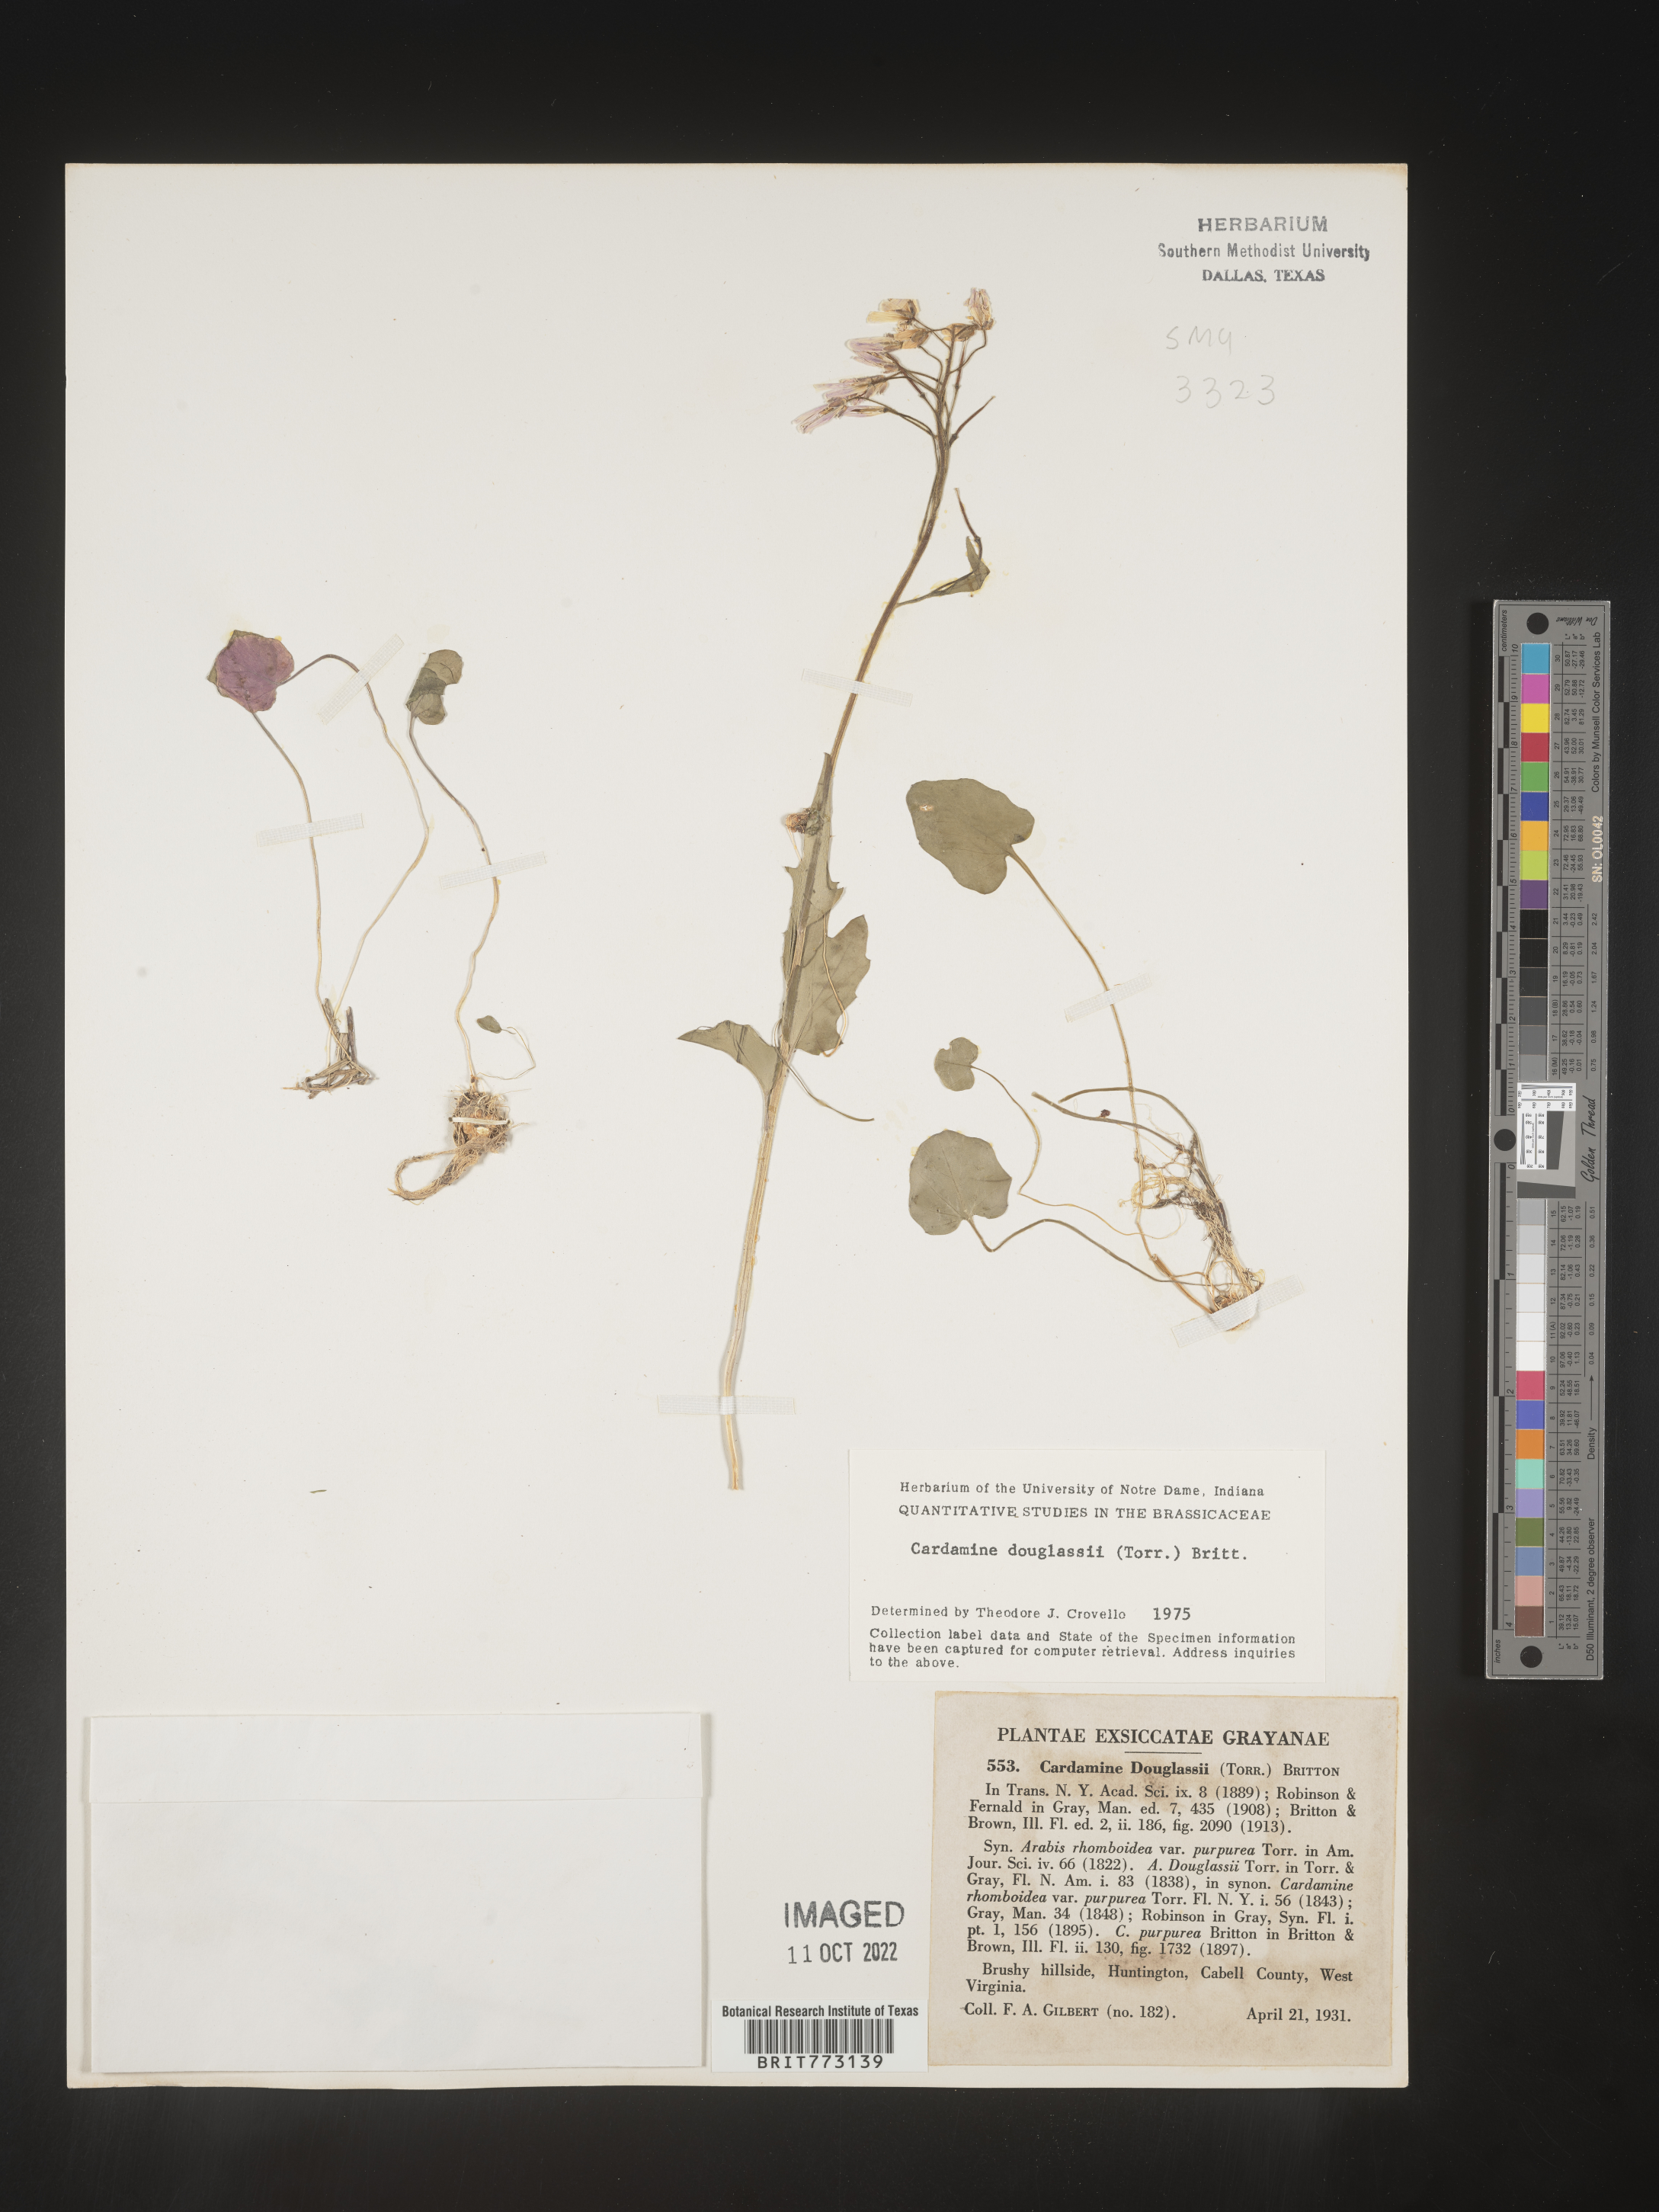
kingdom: Plantae
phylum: Tracheophyta
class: Magnoliopsida
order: Brassicales
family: Brassicaceae
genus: Cardamine
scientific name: Cardamine
